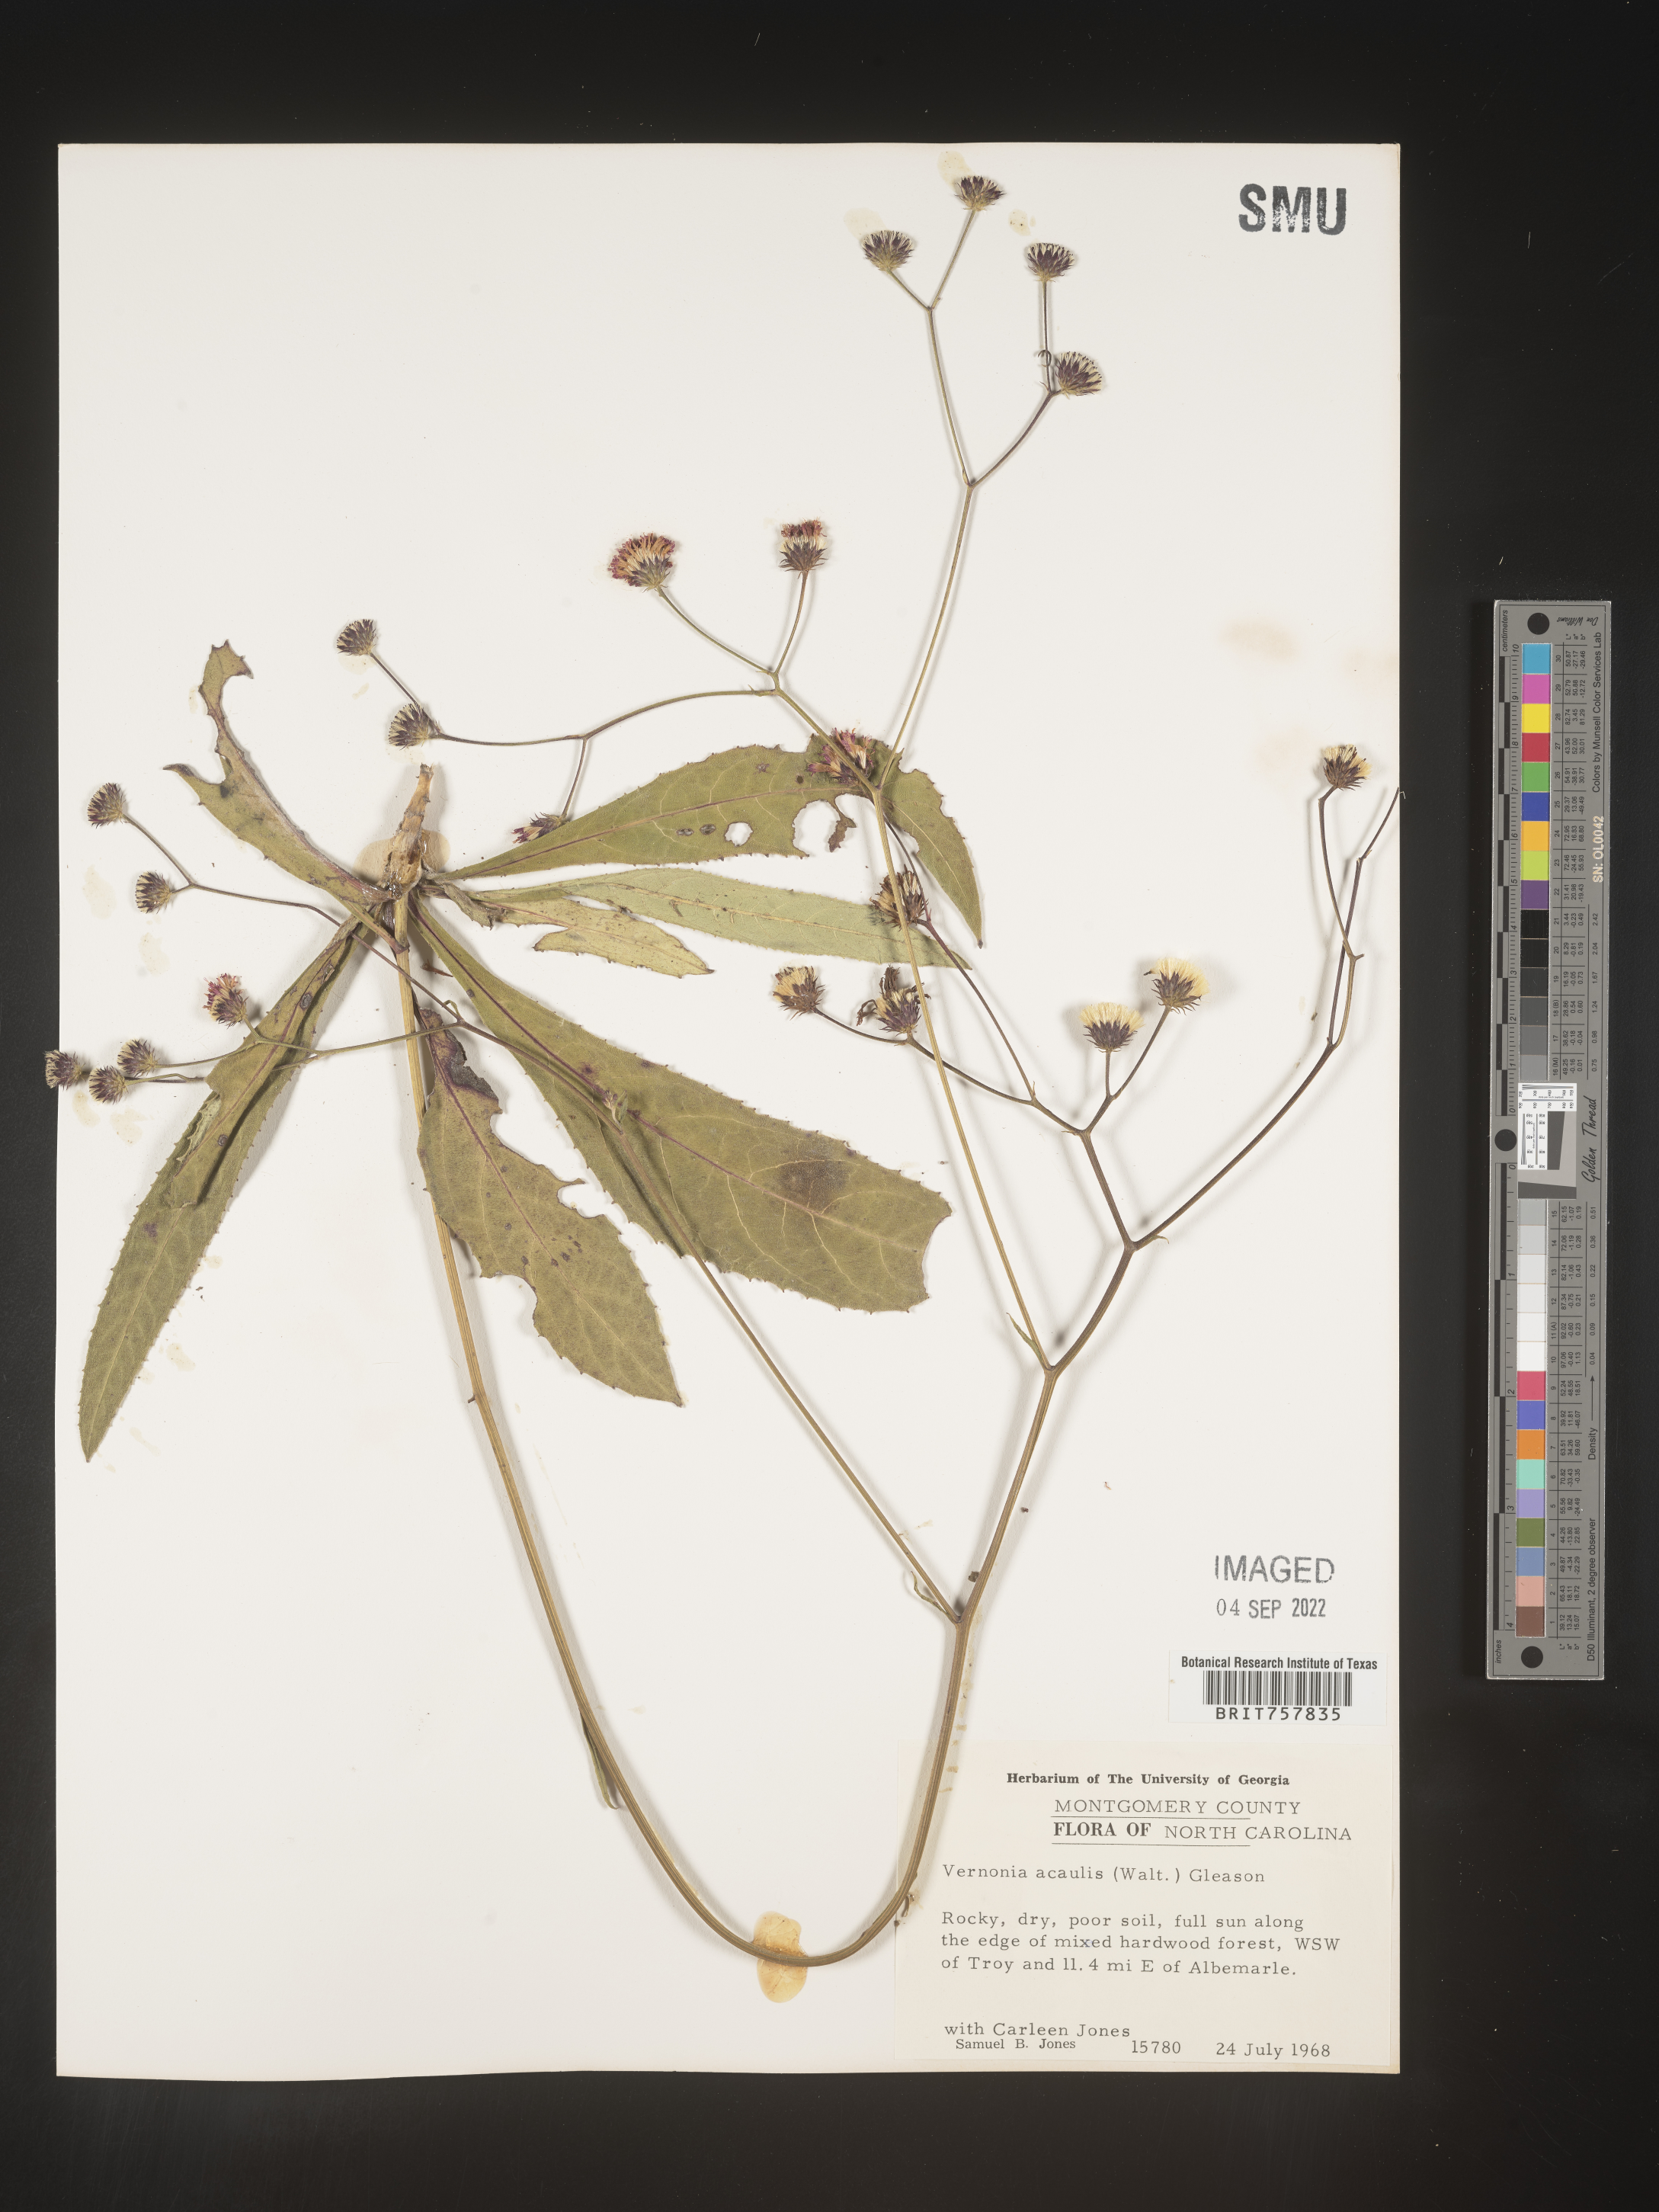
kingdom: Plantae
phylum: Tracheophyta
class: Magnoliopsida
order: Asterales
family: Asteraceae
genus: Vernonia
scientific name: Vernonia acaulis
